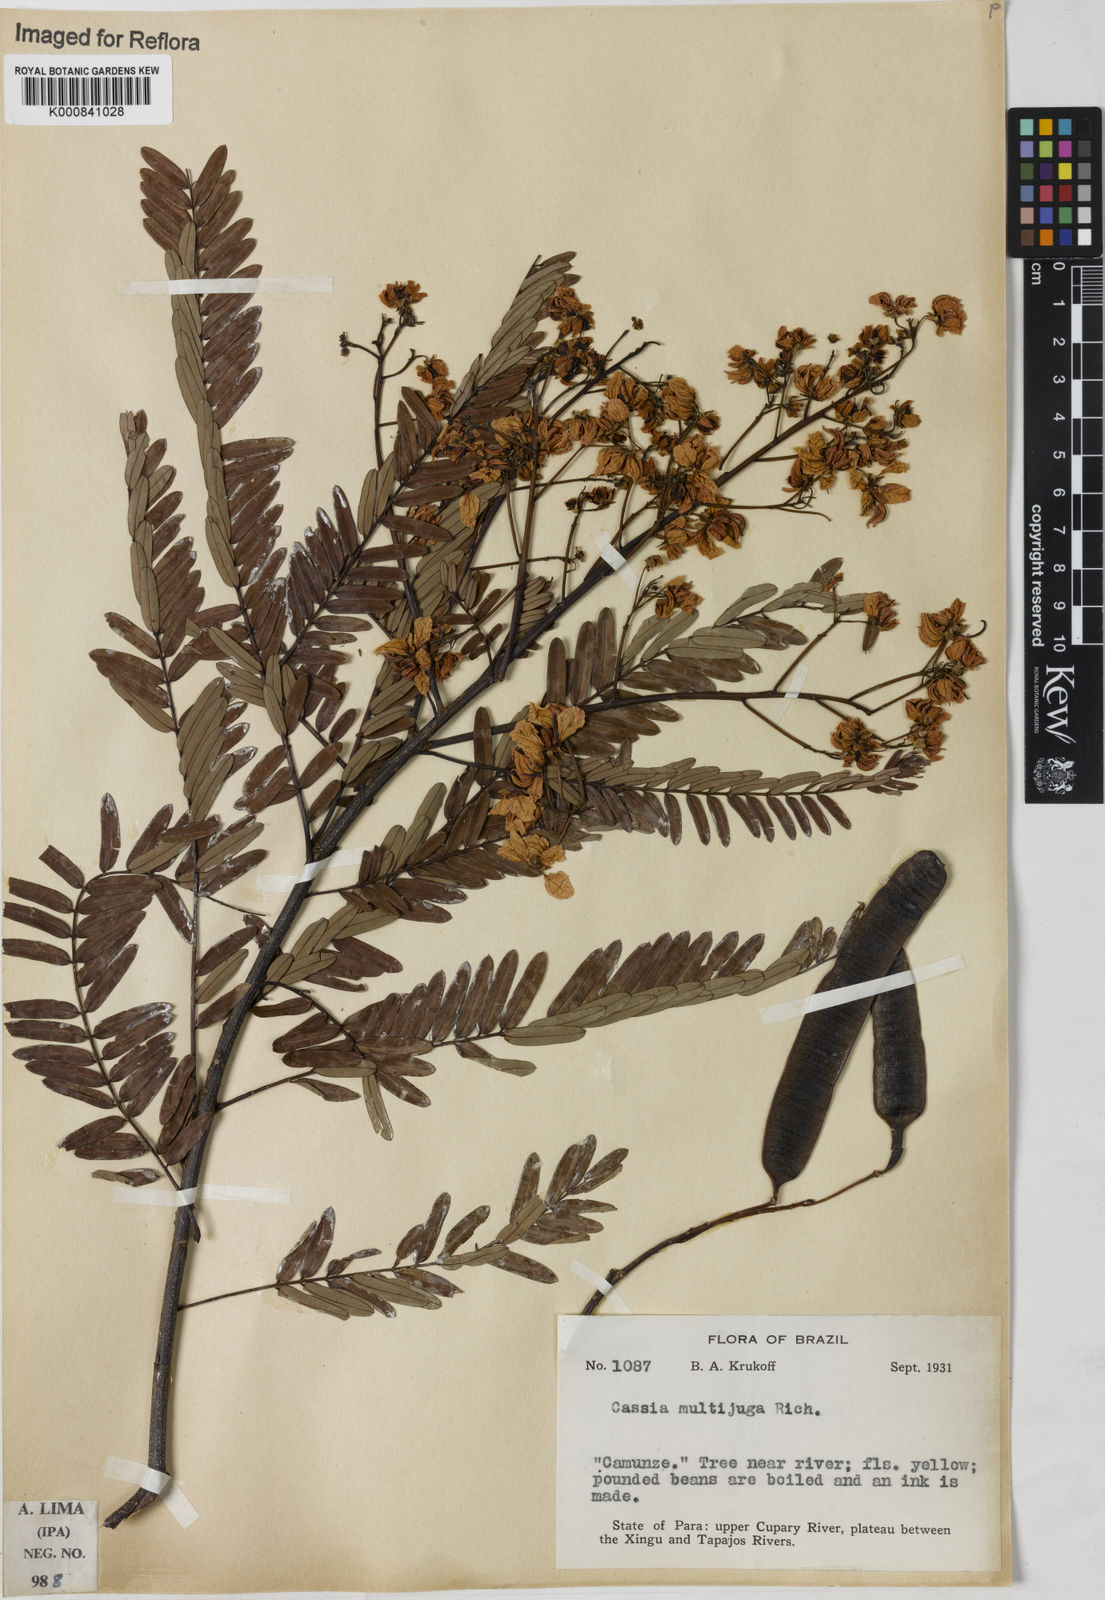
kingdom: Plantae
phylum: Tracheophyta
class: Magnoliopsida
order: Fabales
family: Fabaceae
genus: Senna
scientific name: Senna multijuga
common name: False sicklepod
